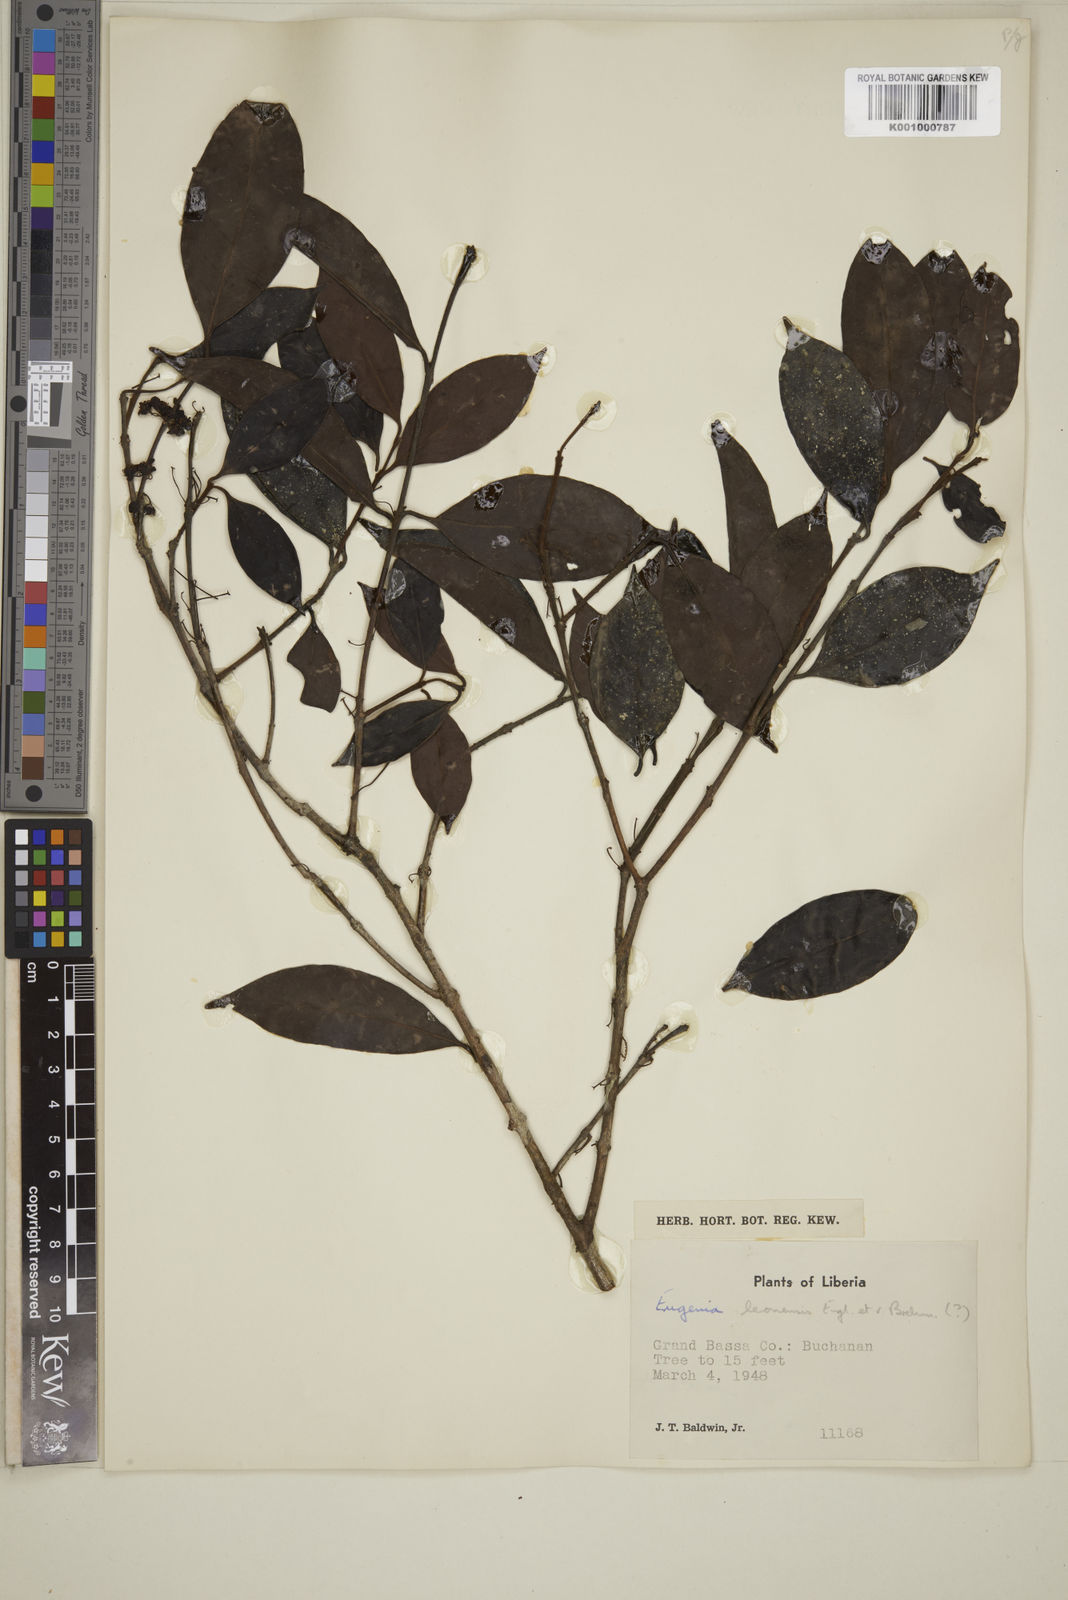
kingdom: Plantae
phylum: Tracheophyta
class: Magnoliopsida
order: Myrtales
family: Myrtaceae
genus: Eugenia
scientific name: Eugenia
